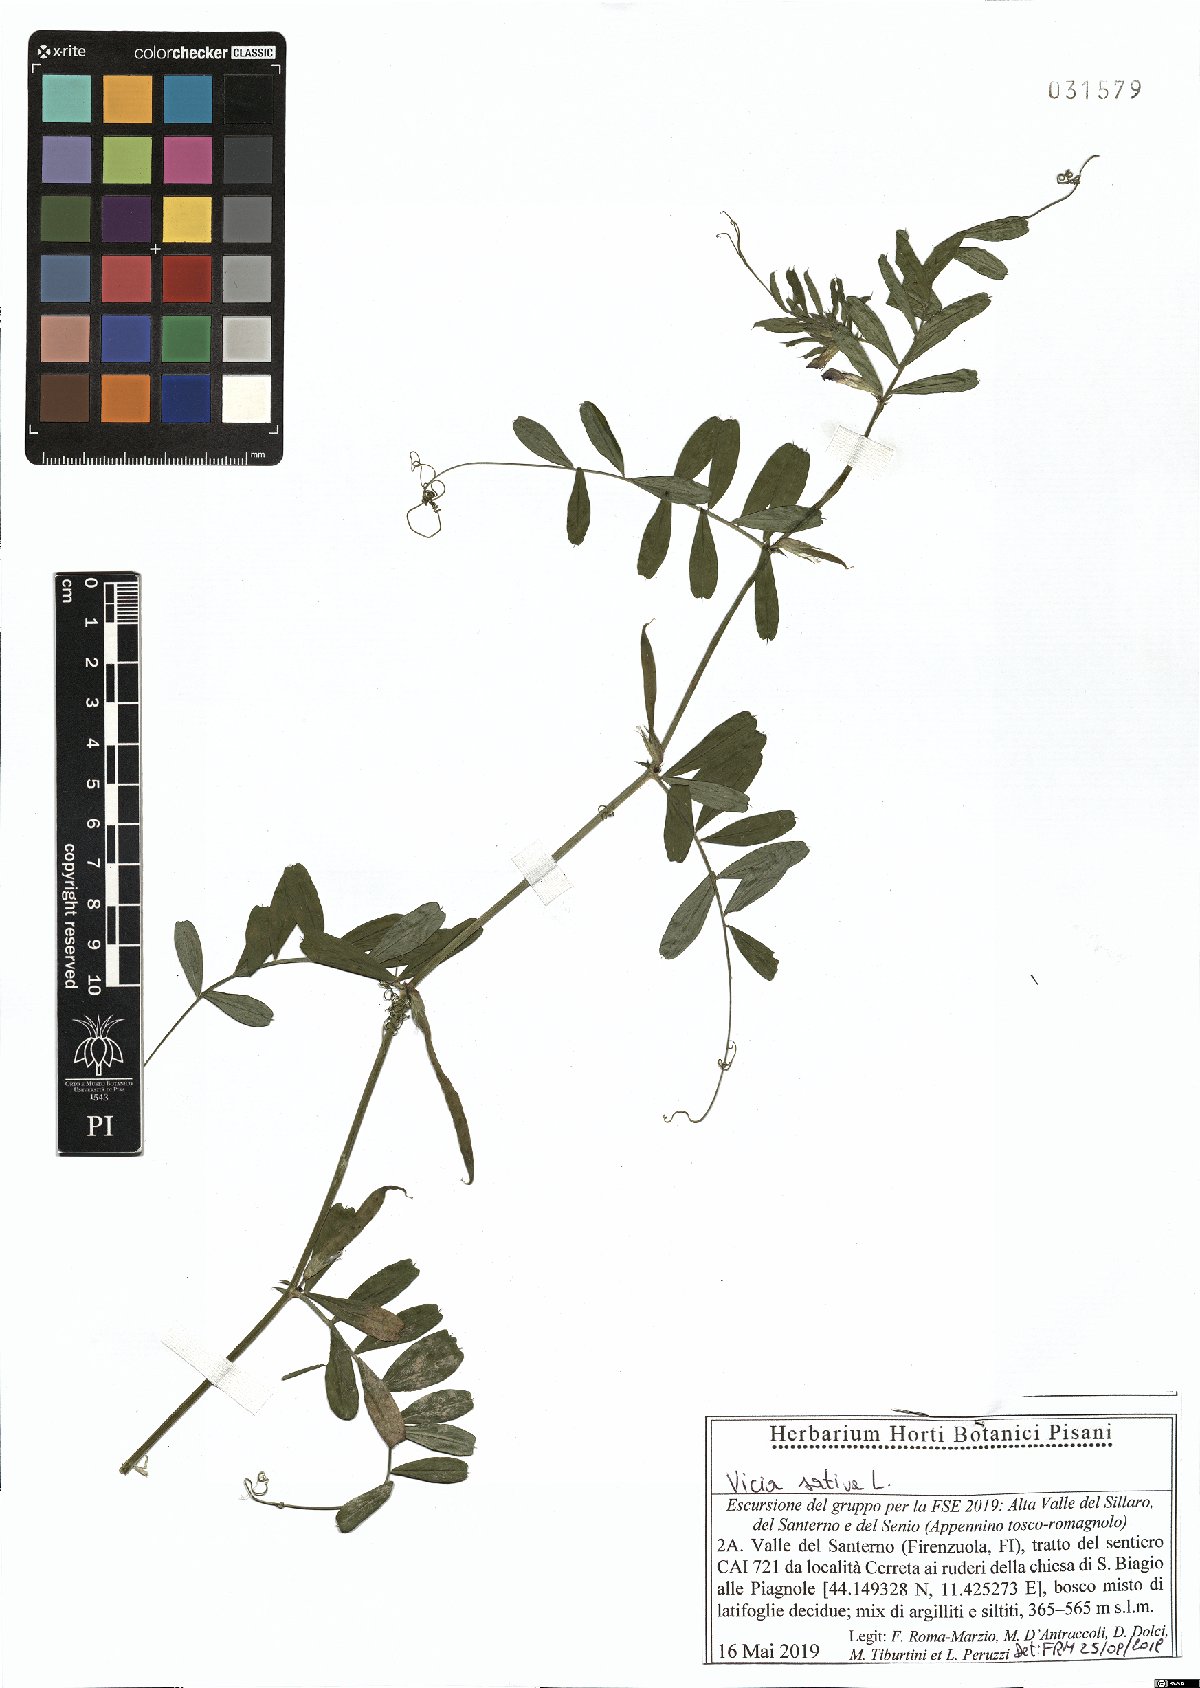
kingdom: Plantae
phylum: Tracheophyta
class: Magnoliopsida
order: Fabales
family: Fabaceae
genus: Vicia
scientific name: Vicia sativa
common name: Garden vetch
